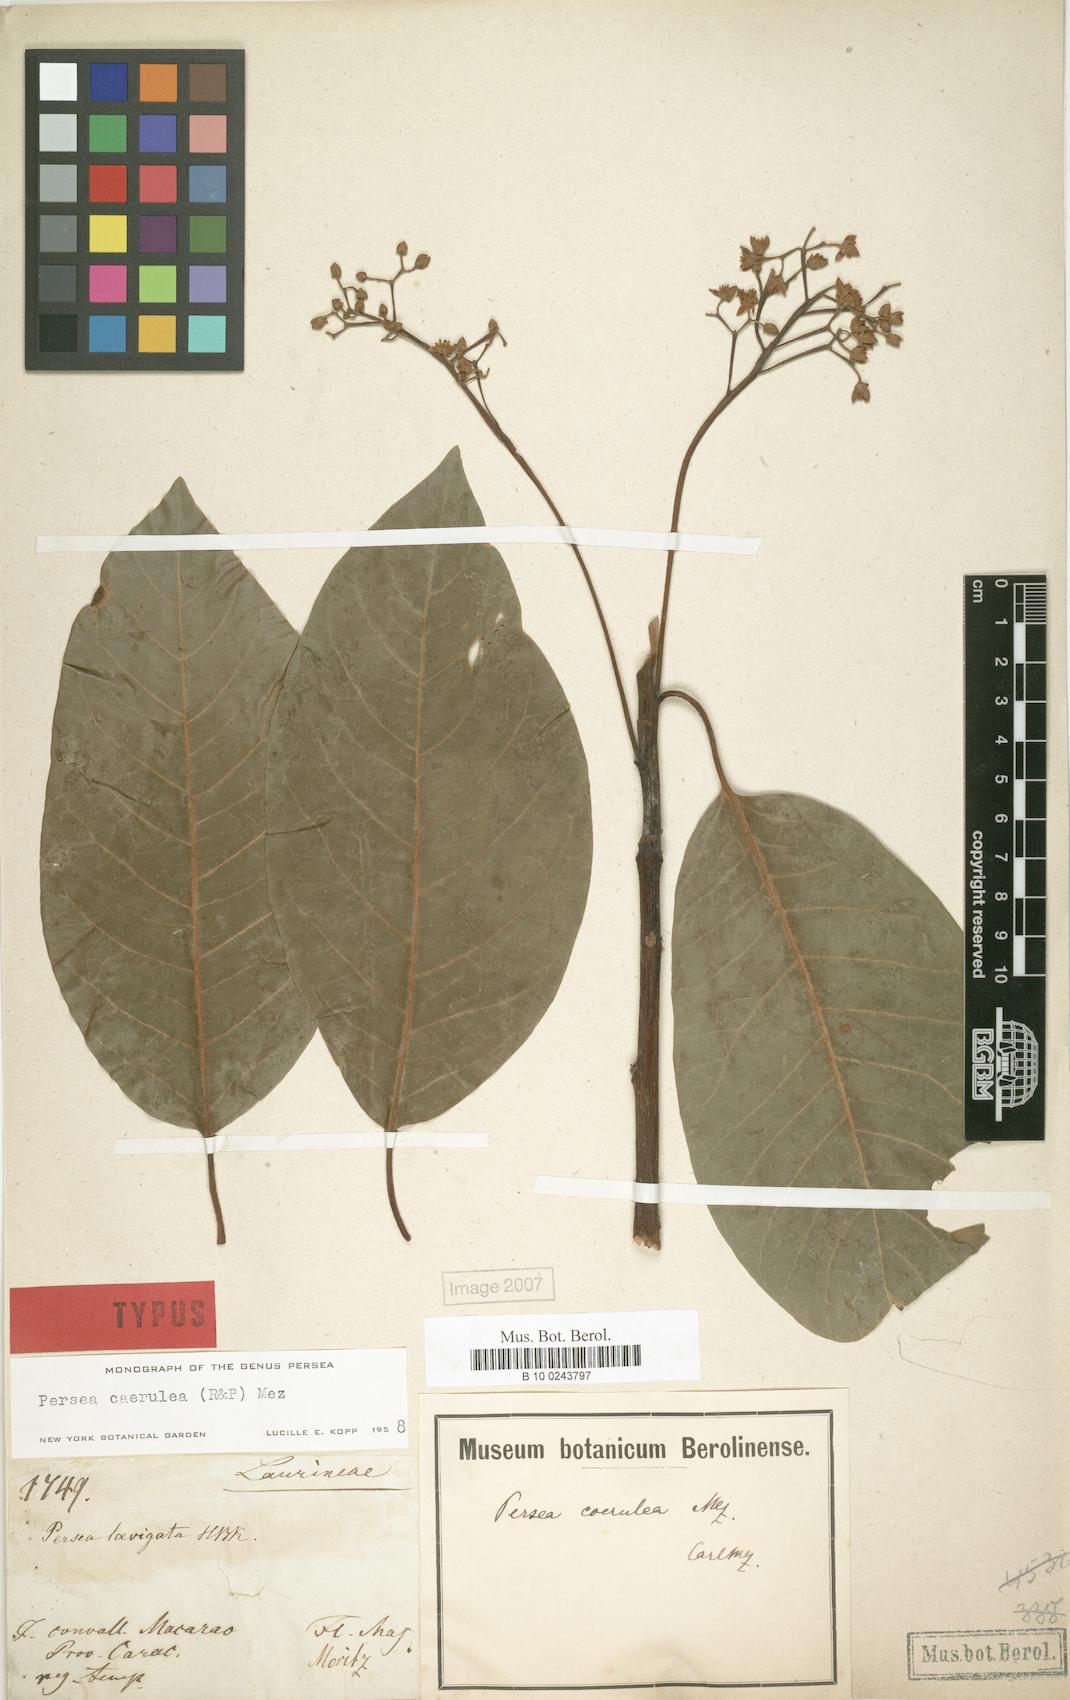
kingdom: Plantae
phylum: Tracheophyta
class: Magnoliopsida
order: Laurales
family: Lauraceae
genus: Persea
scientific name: Persea caerulea
